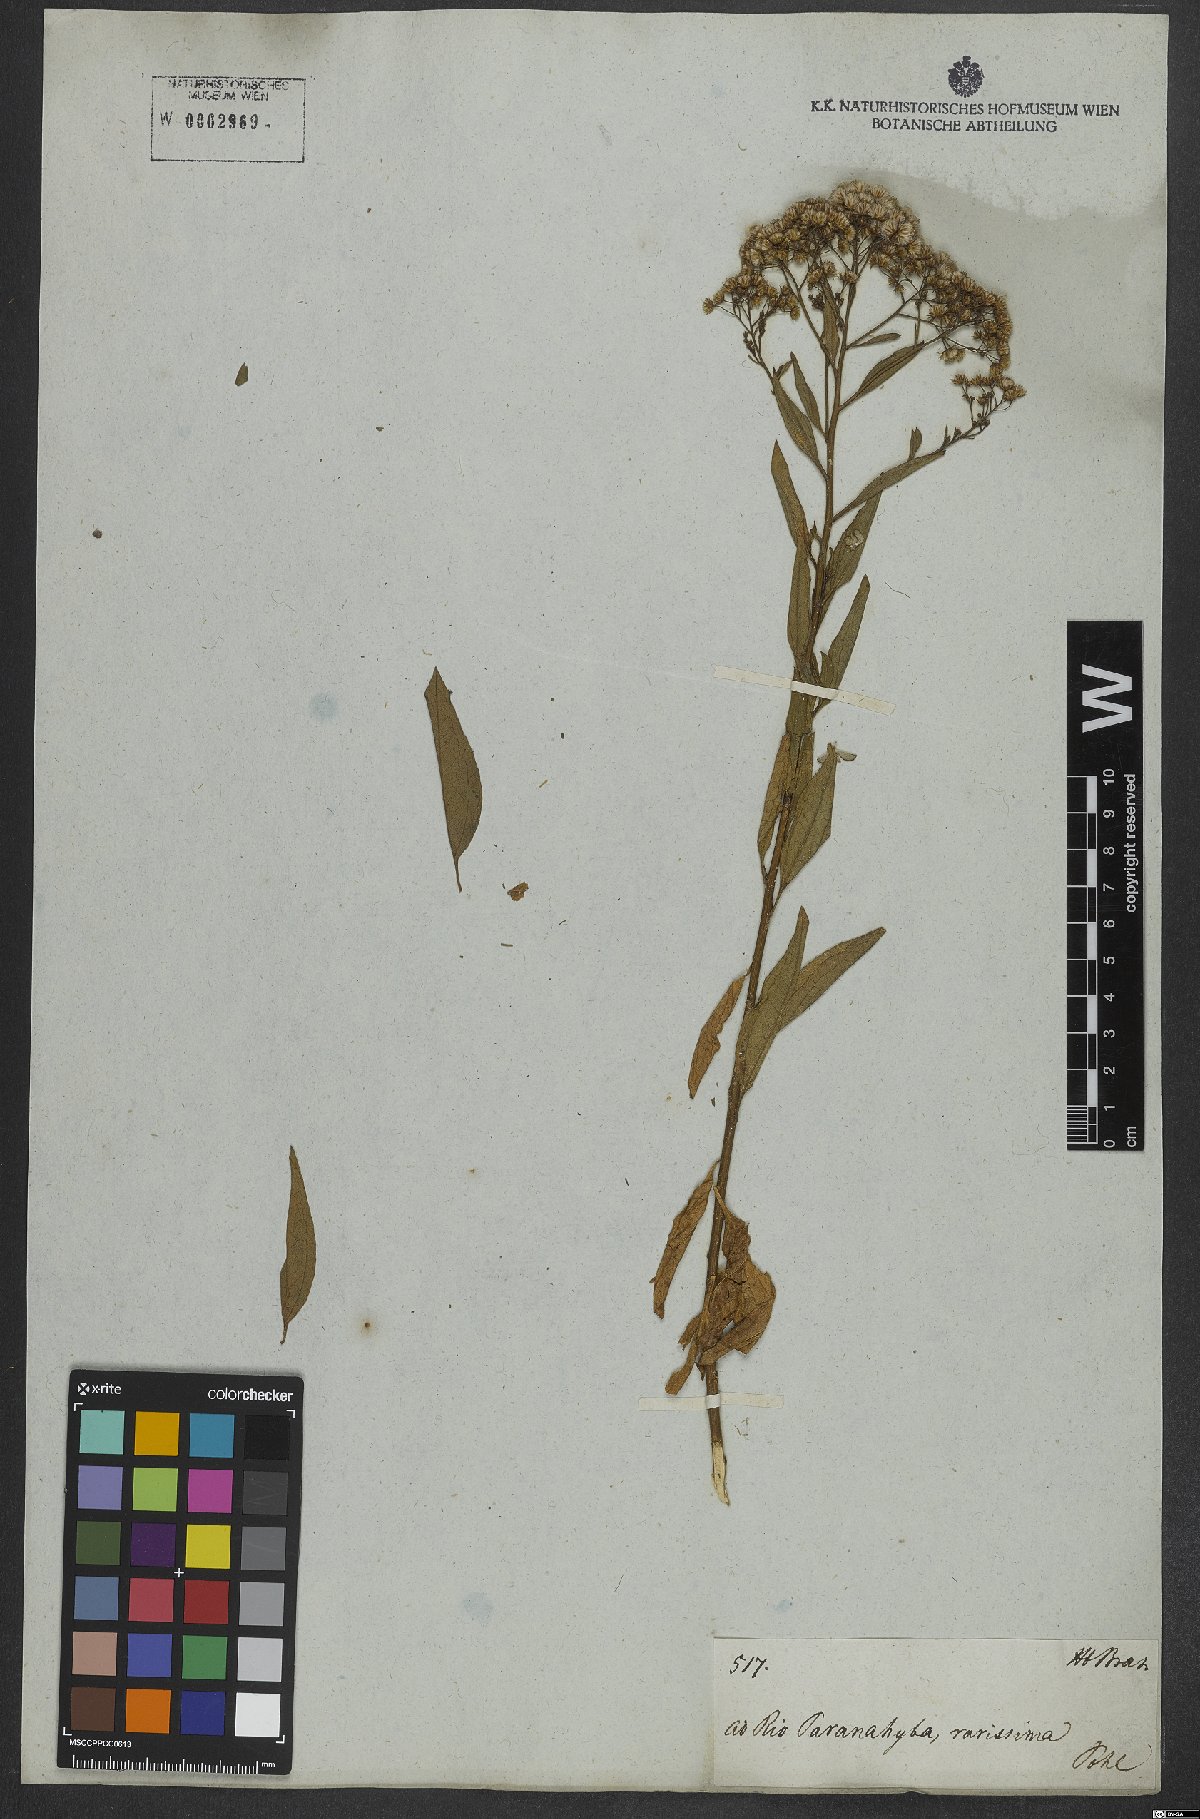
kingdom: Plantae
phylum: Tracheophyta
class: Magnoliopsida
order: Asterales
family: Asteraceae
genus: Archibaccharis
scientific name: Archibaccharis vulneraria
